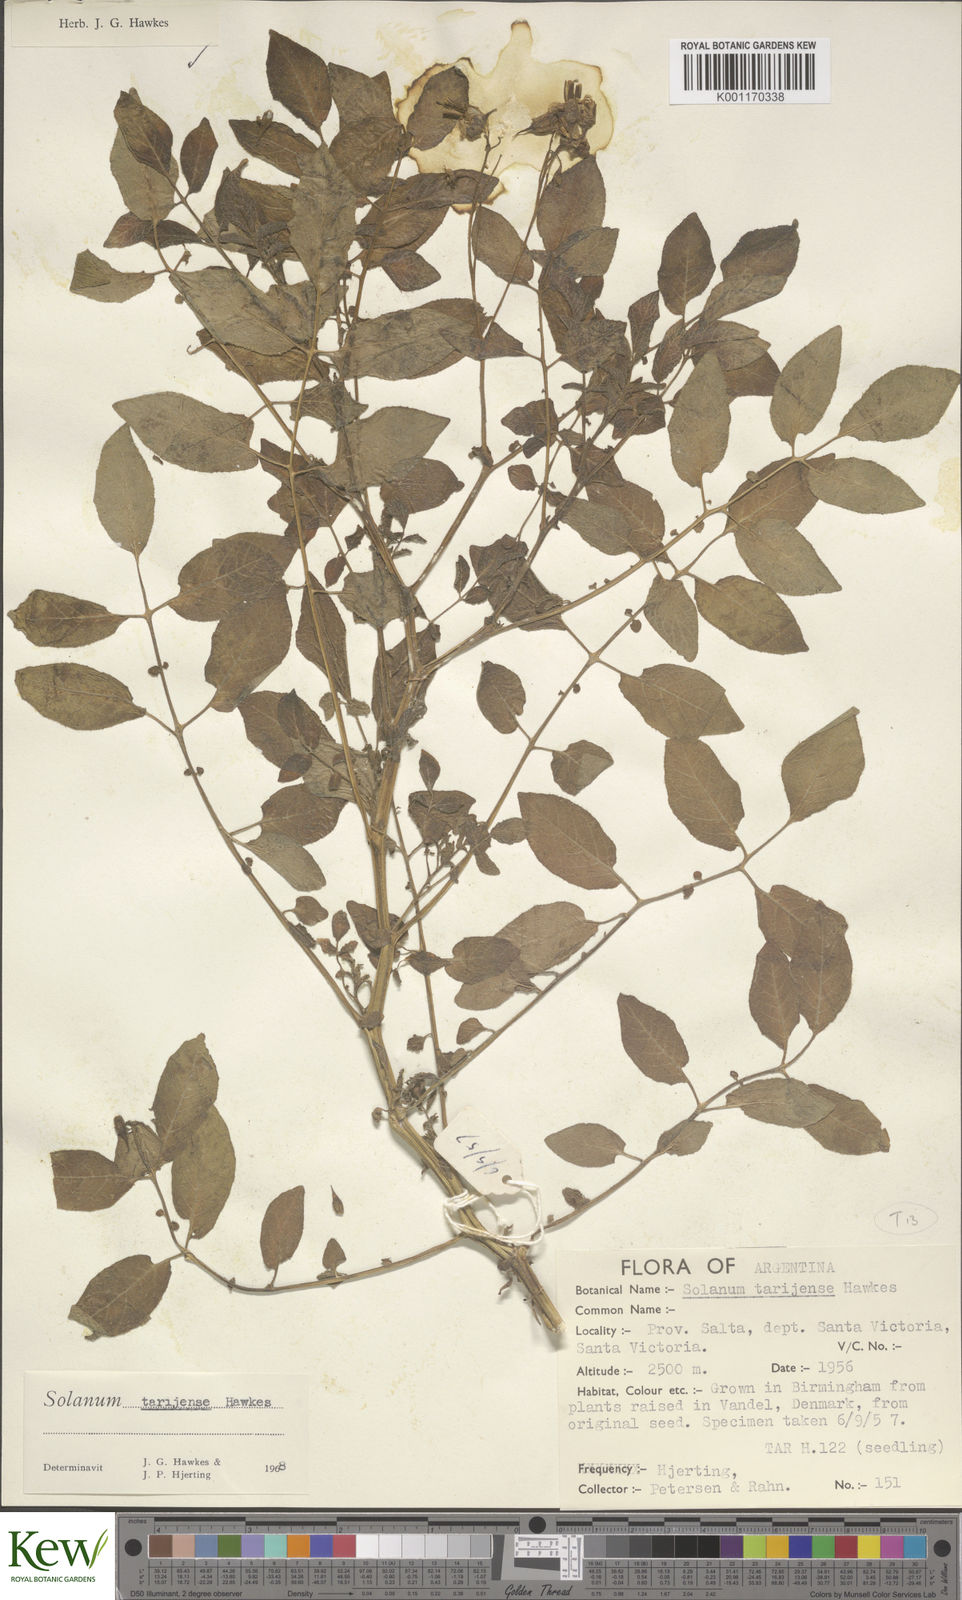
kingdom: Plantae
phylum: Tracheophyta
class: Magnoliopsida
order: Solanales
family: Solanaceae
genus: Solanum
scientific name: Solanum tarijense
